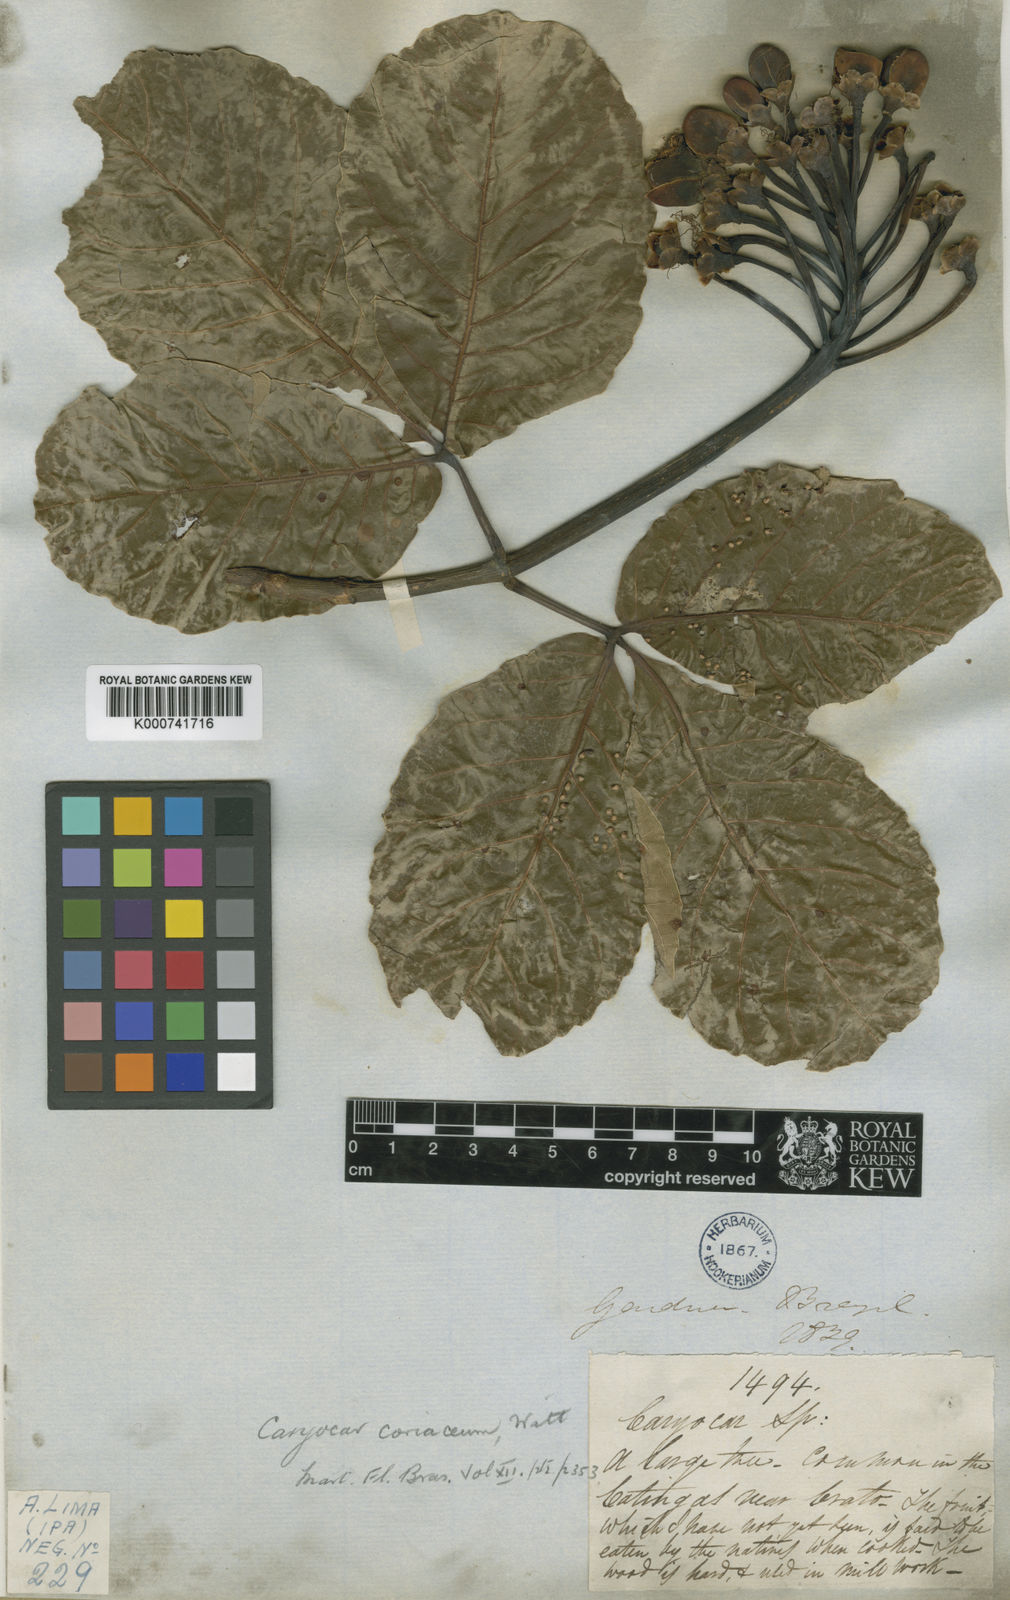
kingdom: Plantae
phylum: Tracheophyta
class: Magnoliopsida
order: Malpighiales
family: Caryocaraceae
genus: Caryocar
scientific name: Caryocar coriaceum
